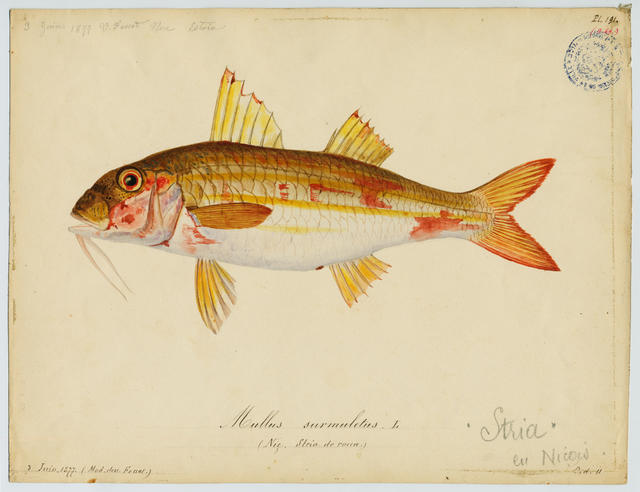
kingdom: Animalia
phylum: Chordata
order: Perciformes
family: Mullidae
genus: Mullus
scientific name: Mullus surmuletus
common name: Red mullet
